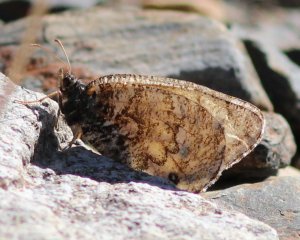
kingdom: Animalia
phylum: Arthropoda
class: Insecta
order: Lepidoptera
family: Nymphalidae
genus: Oeneis
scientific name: Oeneis chryxus
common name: Chryxus Arctic
